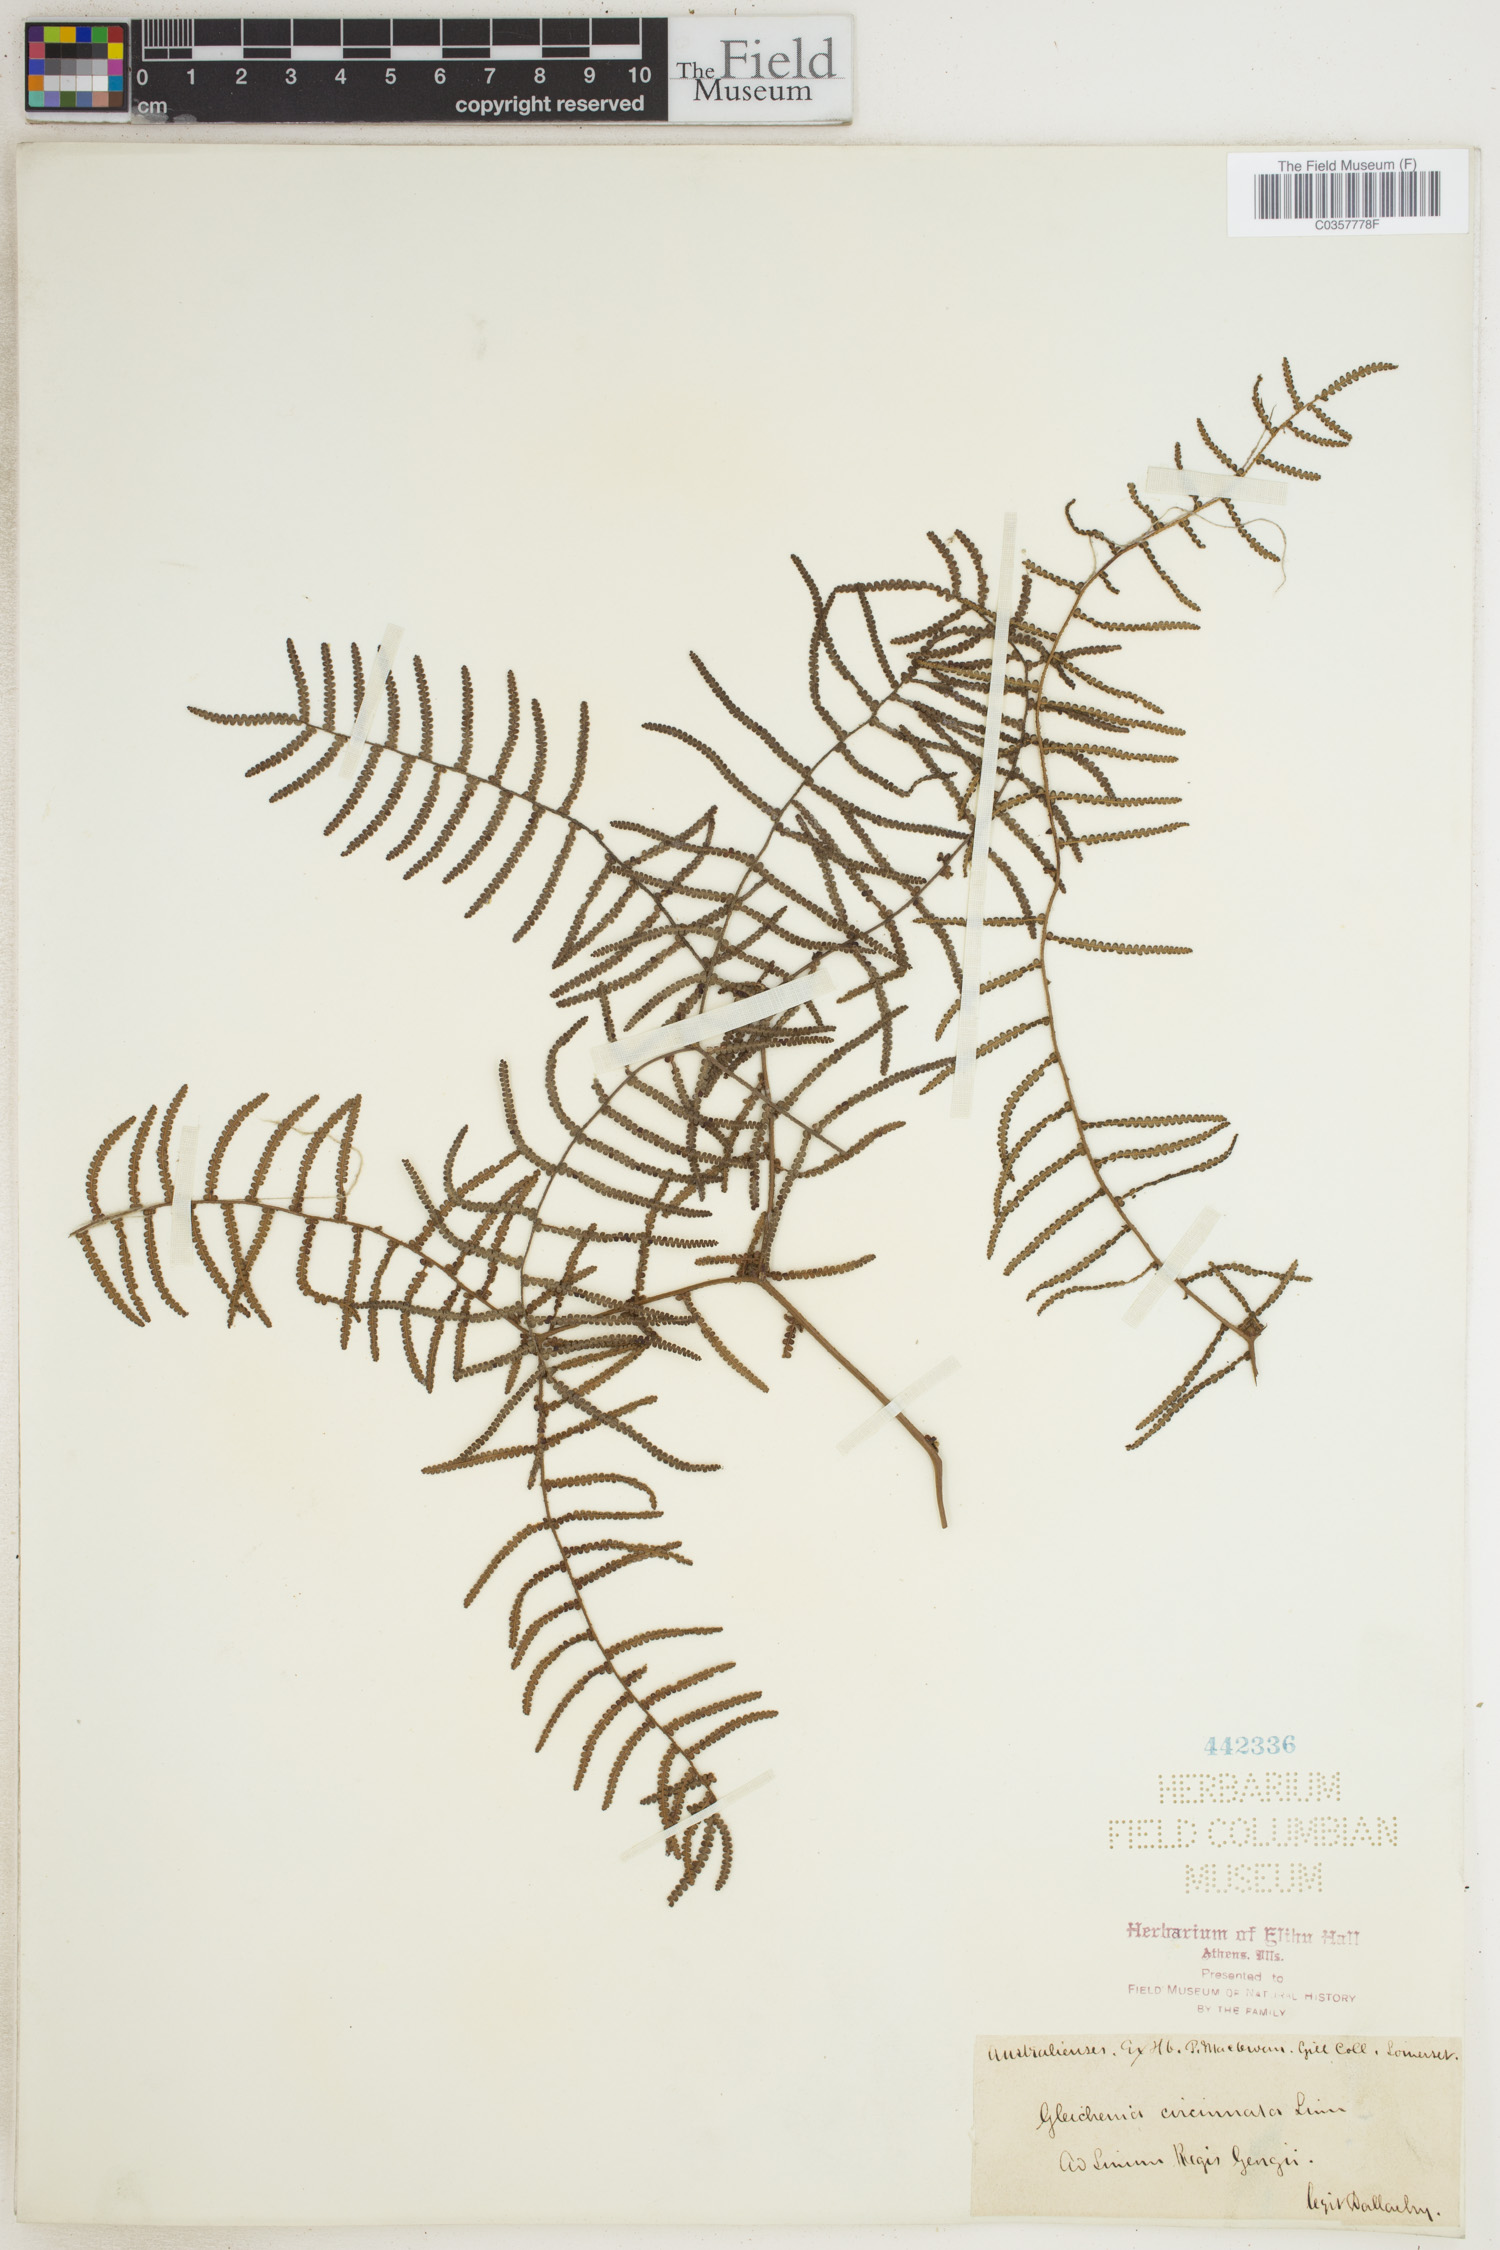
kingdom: Plantae
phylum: Tracheophyta
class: Polypodiopsida
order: Gleicheniales
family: Gleicheniaceae
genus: Gleichenia
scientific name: Gleichenia circinnata
